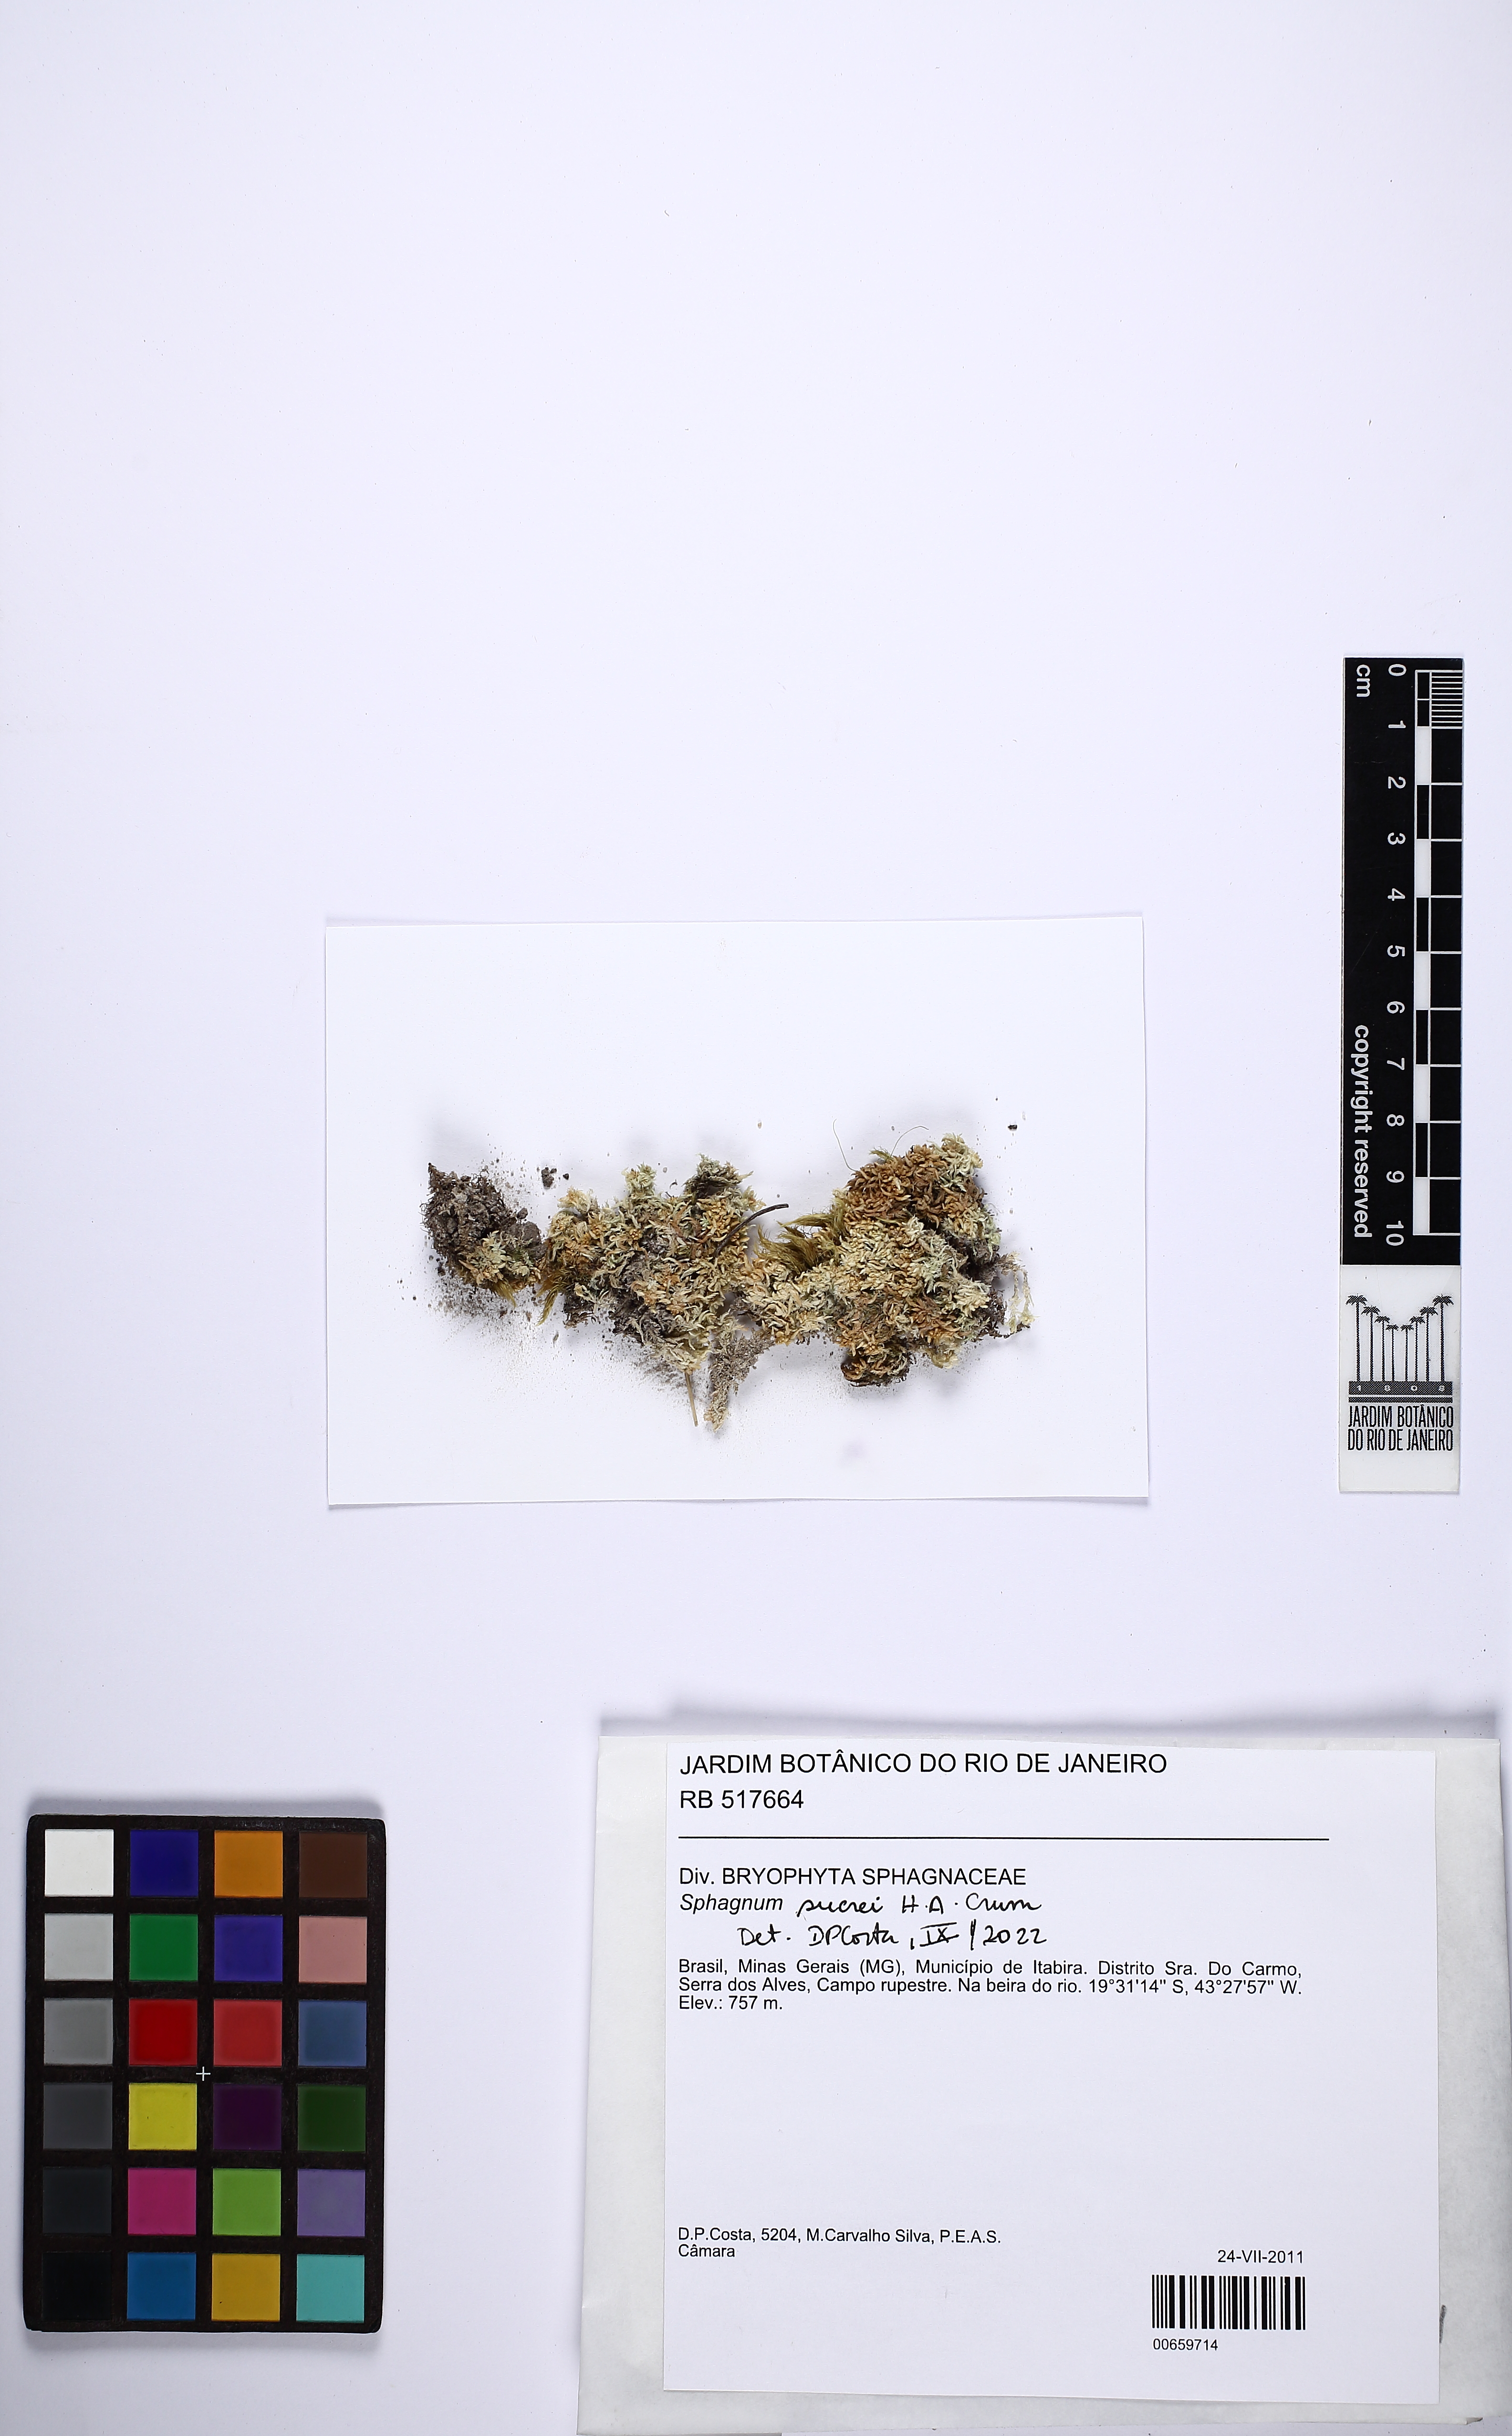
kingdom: Plantae
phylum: Bryophyta
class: Sphagnopsida
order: Sphagnales
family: Sphagnaceae
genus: Sphagnum
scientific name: Sphagnum sucrei
